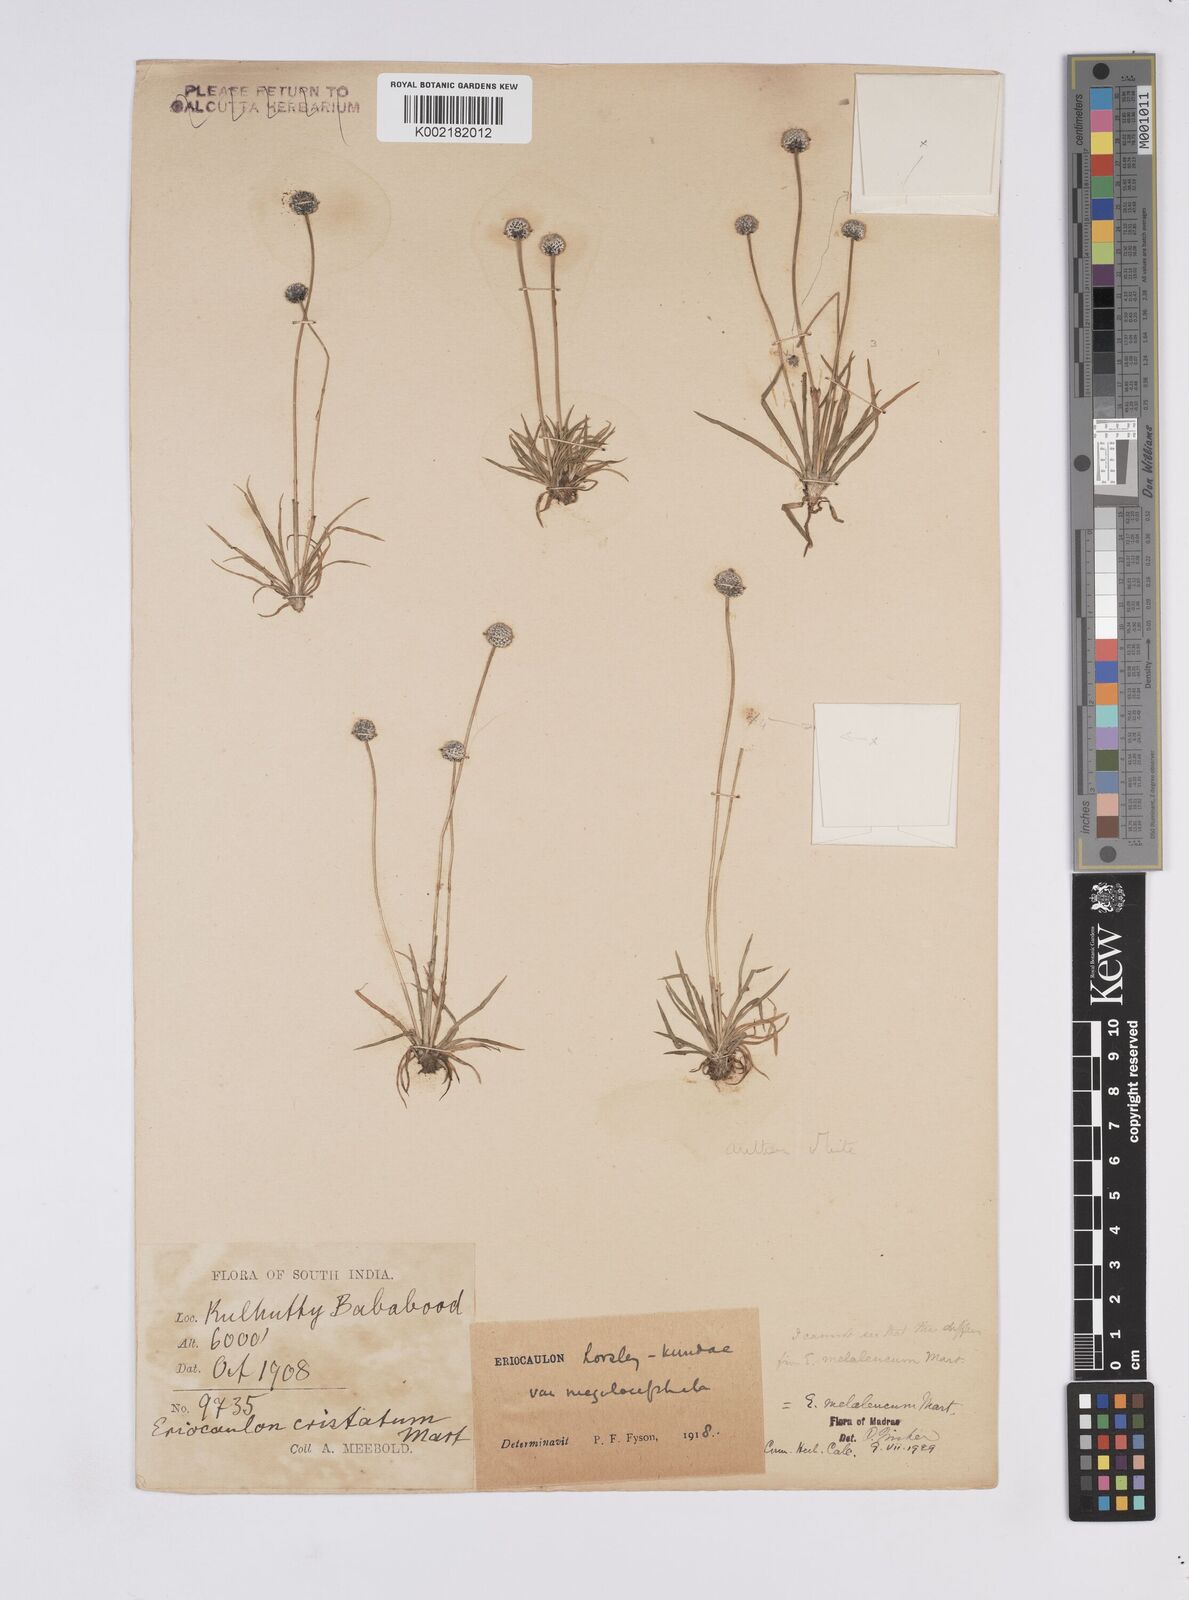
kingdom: Plantae
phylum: Tracheophyta
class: Liliopsida
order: Poales
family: Eriocaulaceae
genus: Eriocaulon
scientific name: Eriocaulon leucomelas
